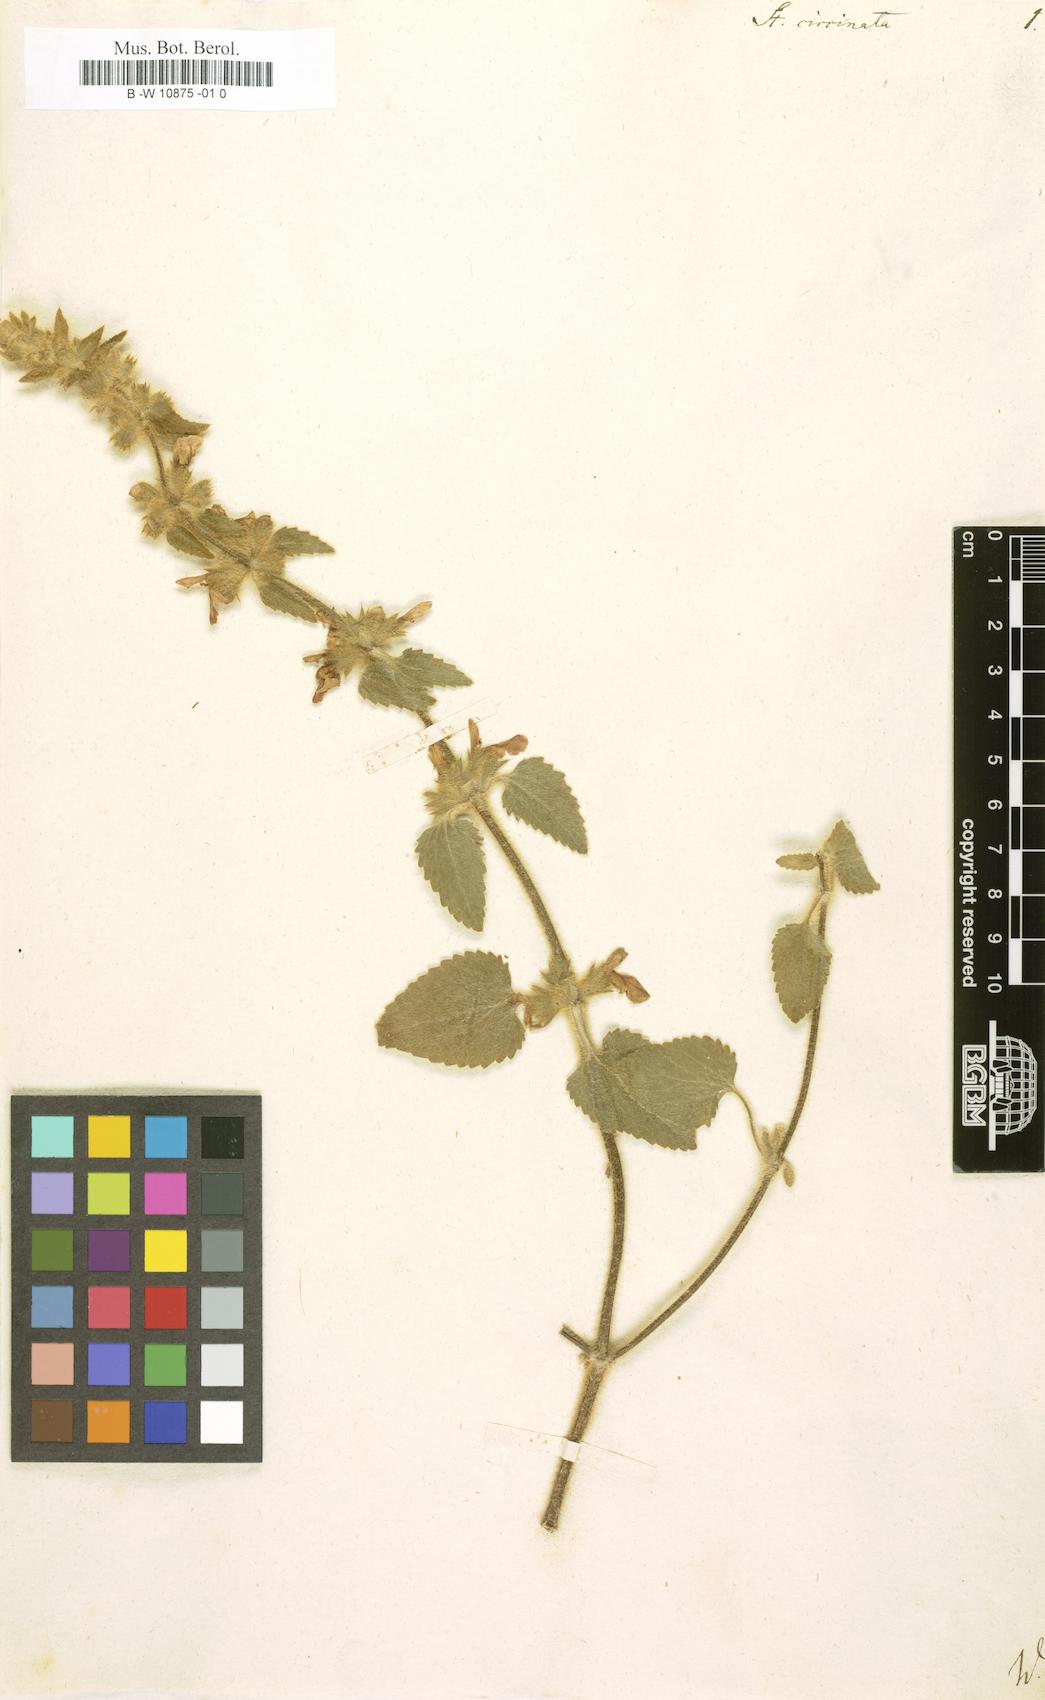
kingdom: Plantae
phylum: Tracheophyta
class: Magnoliopsida
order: Lamiales
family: Lamiaceae
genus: Stachys
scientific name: Stachys circinata
